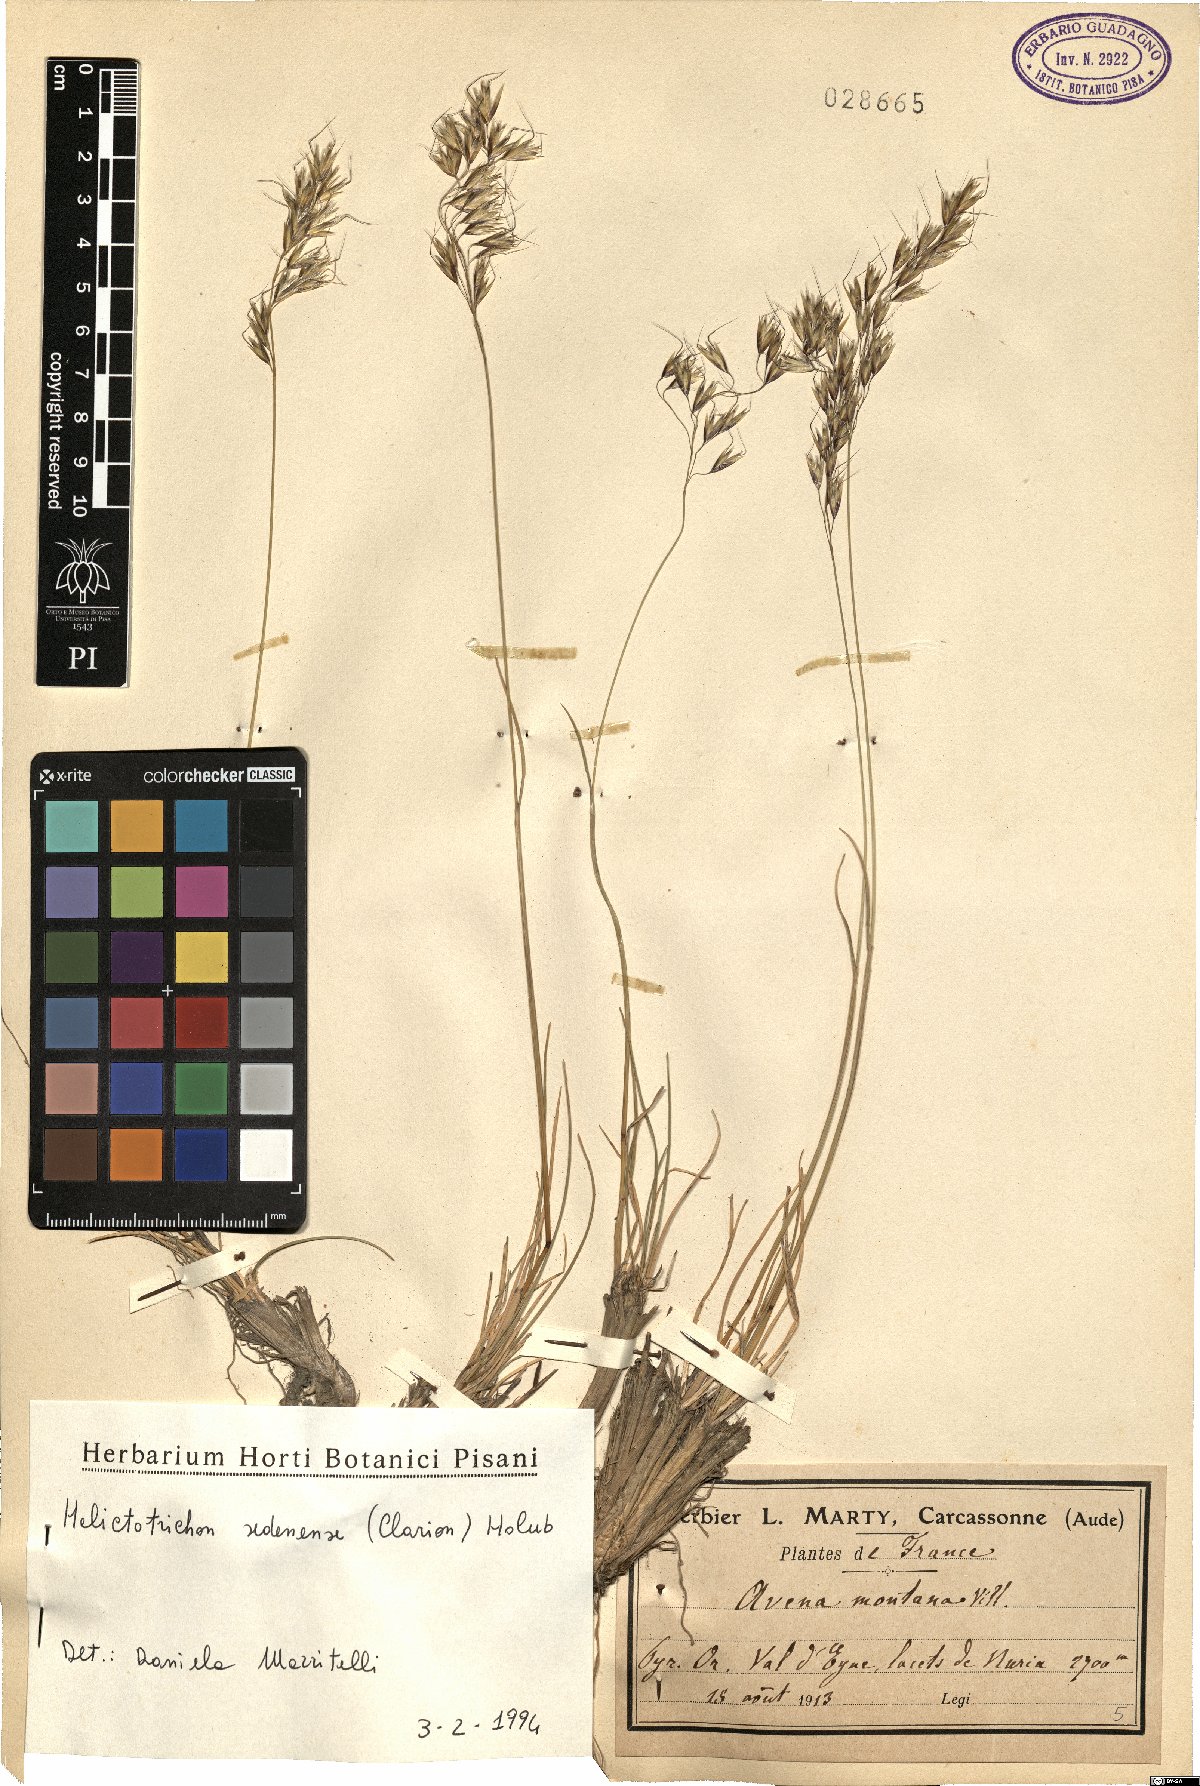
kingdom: Plantae
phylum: Tracheophyta
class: Liliopsida
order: Poales
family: Poaceae
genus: Helictotrichon
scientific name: Helictotrichon sedenense
